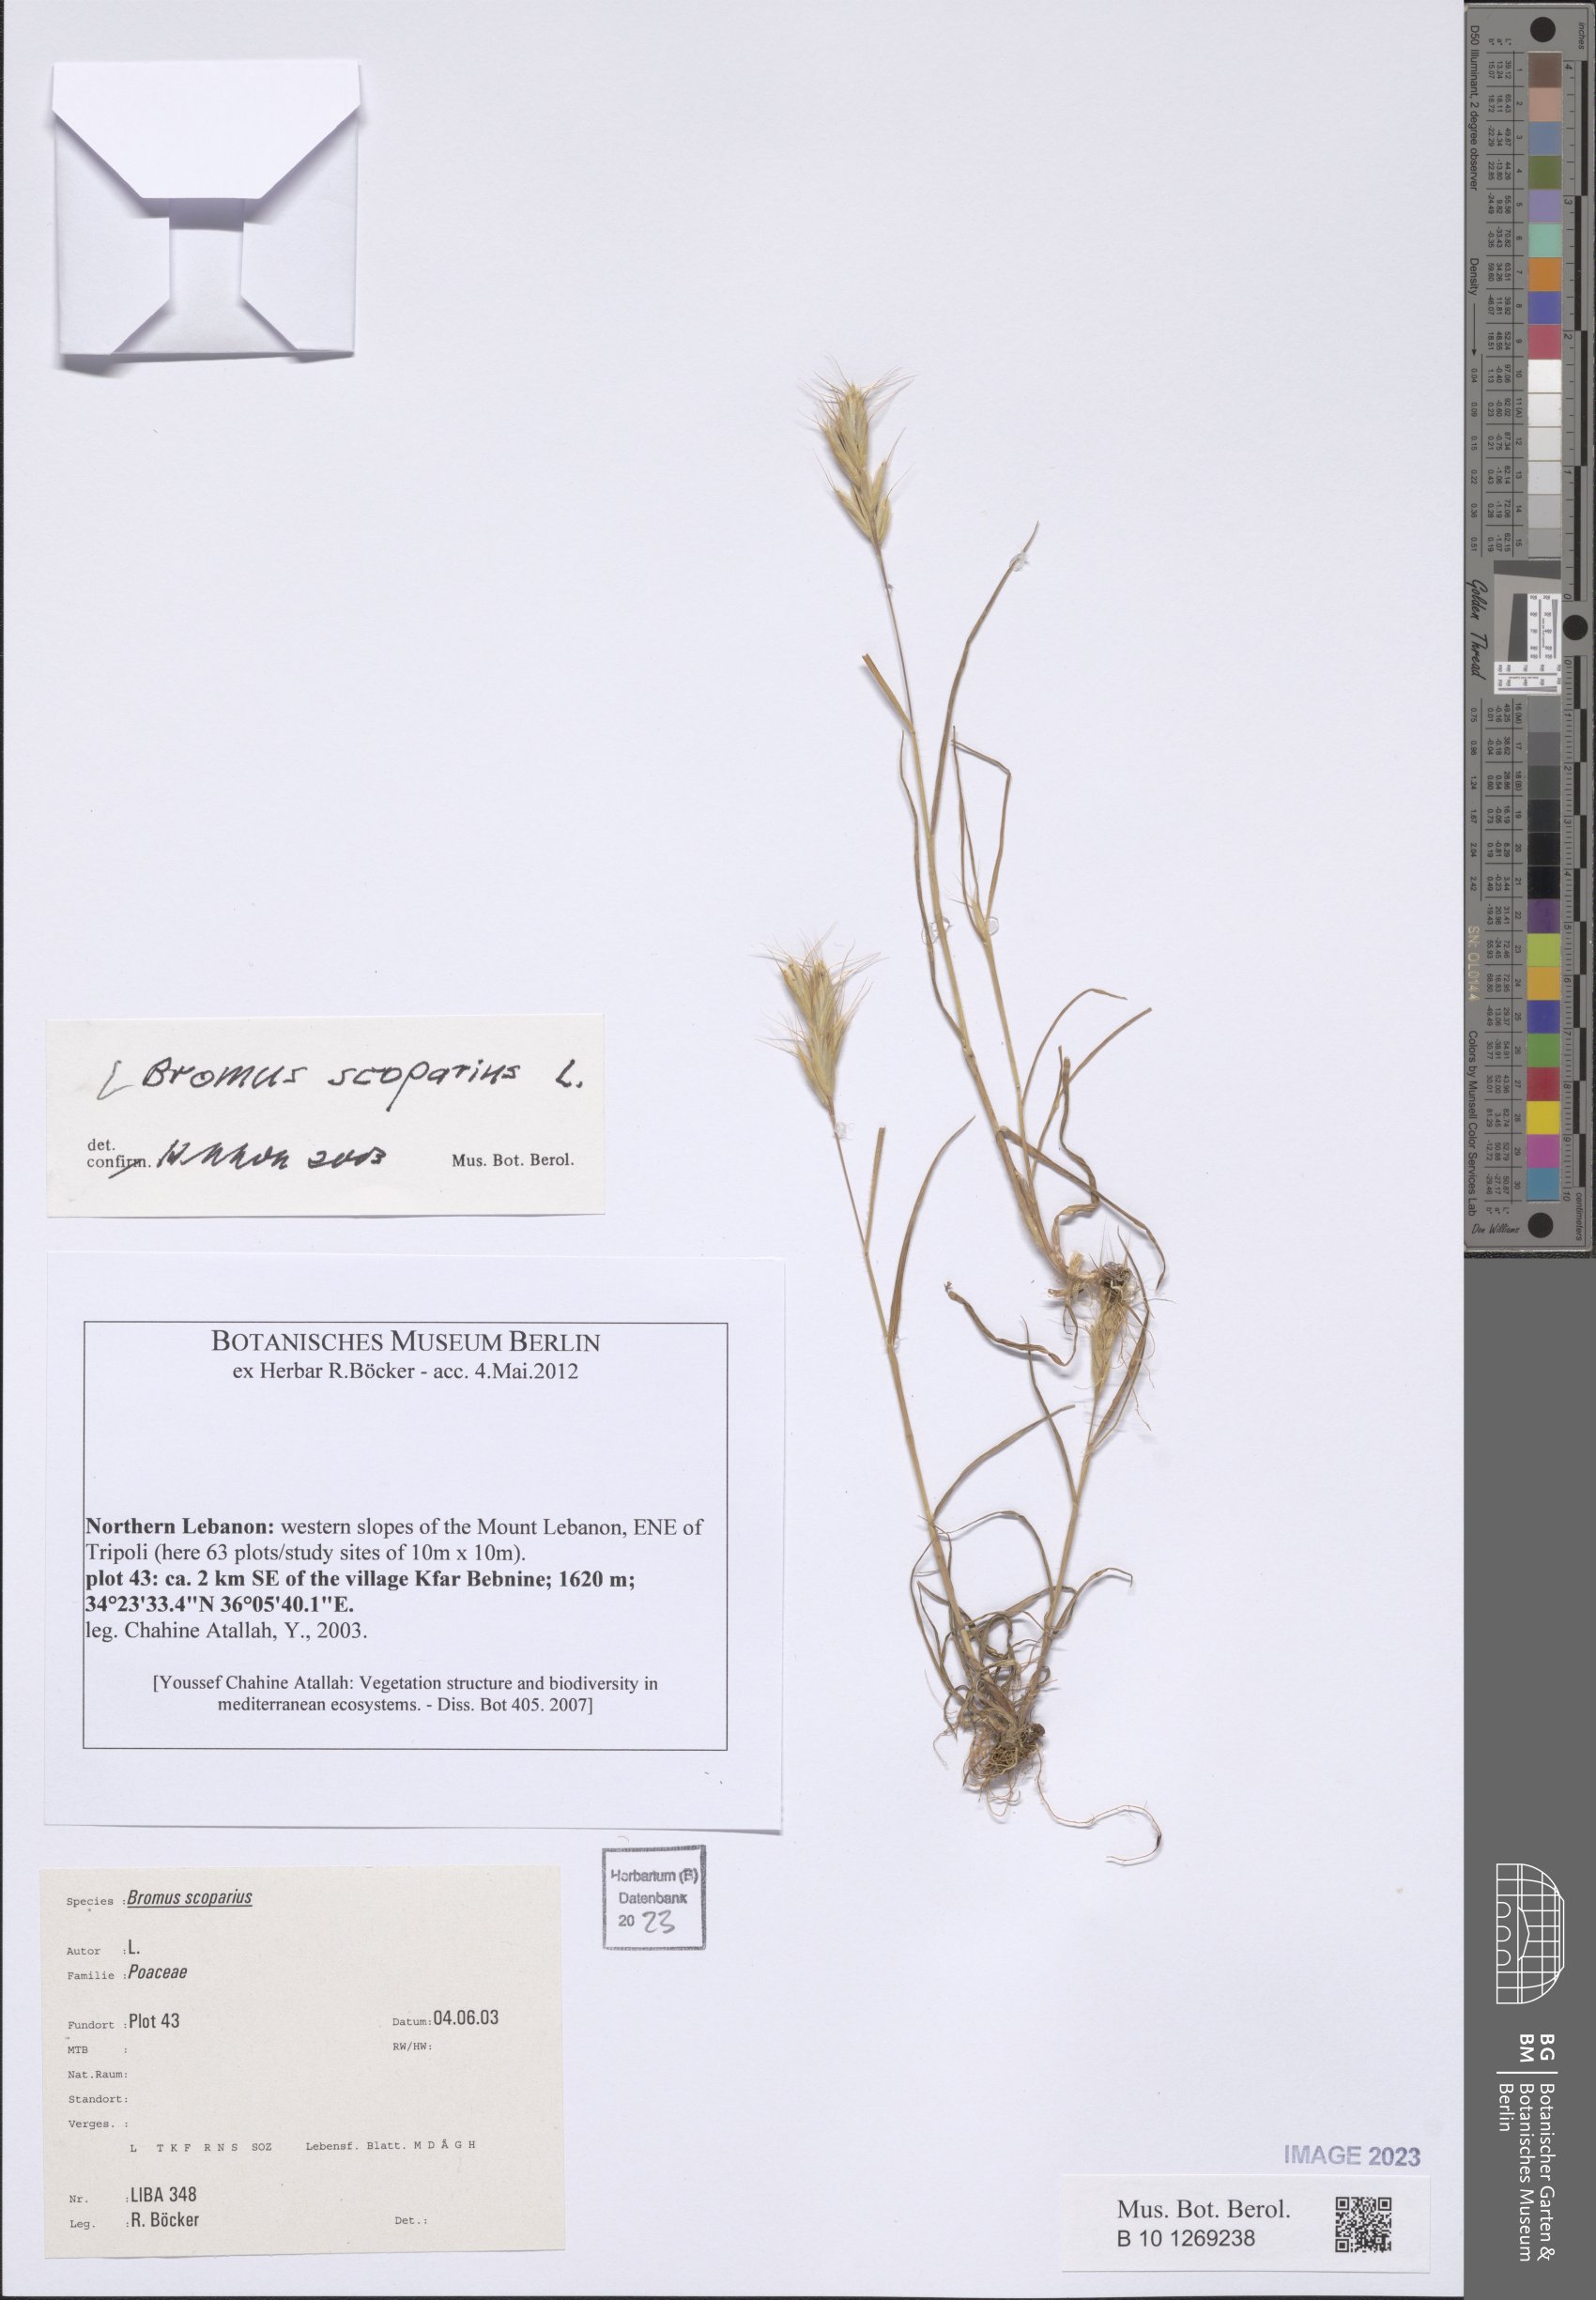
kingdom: Plantae
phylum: Tracheophyta
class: Liliopsida
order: Poales
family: Poaceae
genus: Bromus
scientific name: Bromus scoparius
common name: Broom brome
